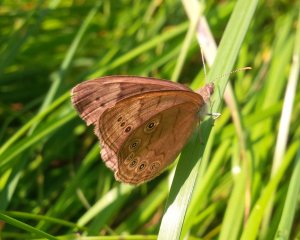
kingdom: Animalia
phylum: Arthropoda
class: Insecta
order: Lepidoptera
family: Nymphalidae
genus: Lethe
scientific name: Lethe eurydice
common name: Eyed Brown
